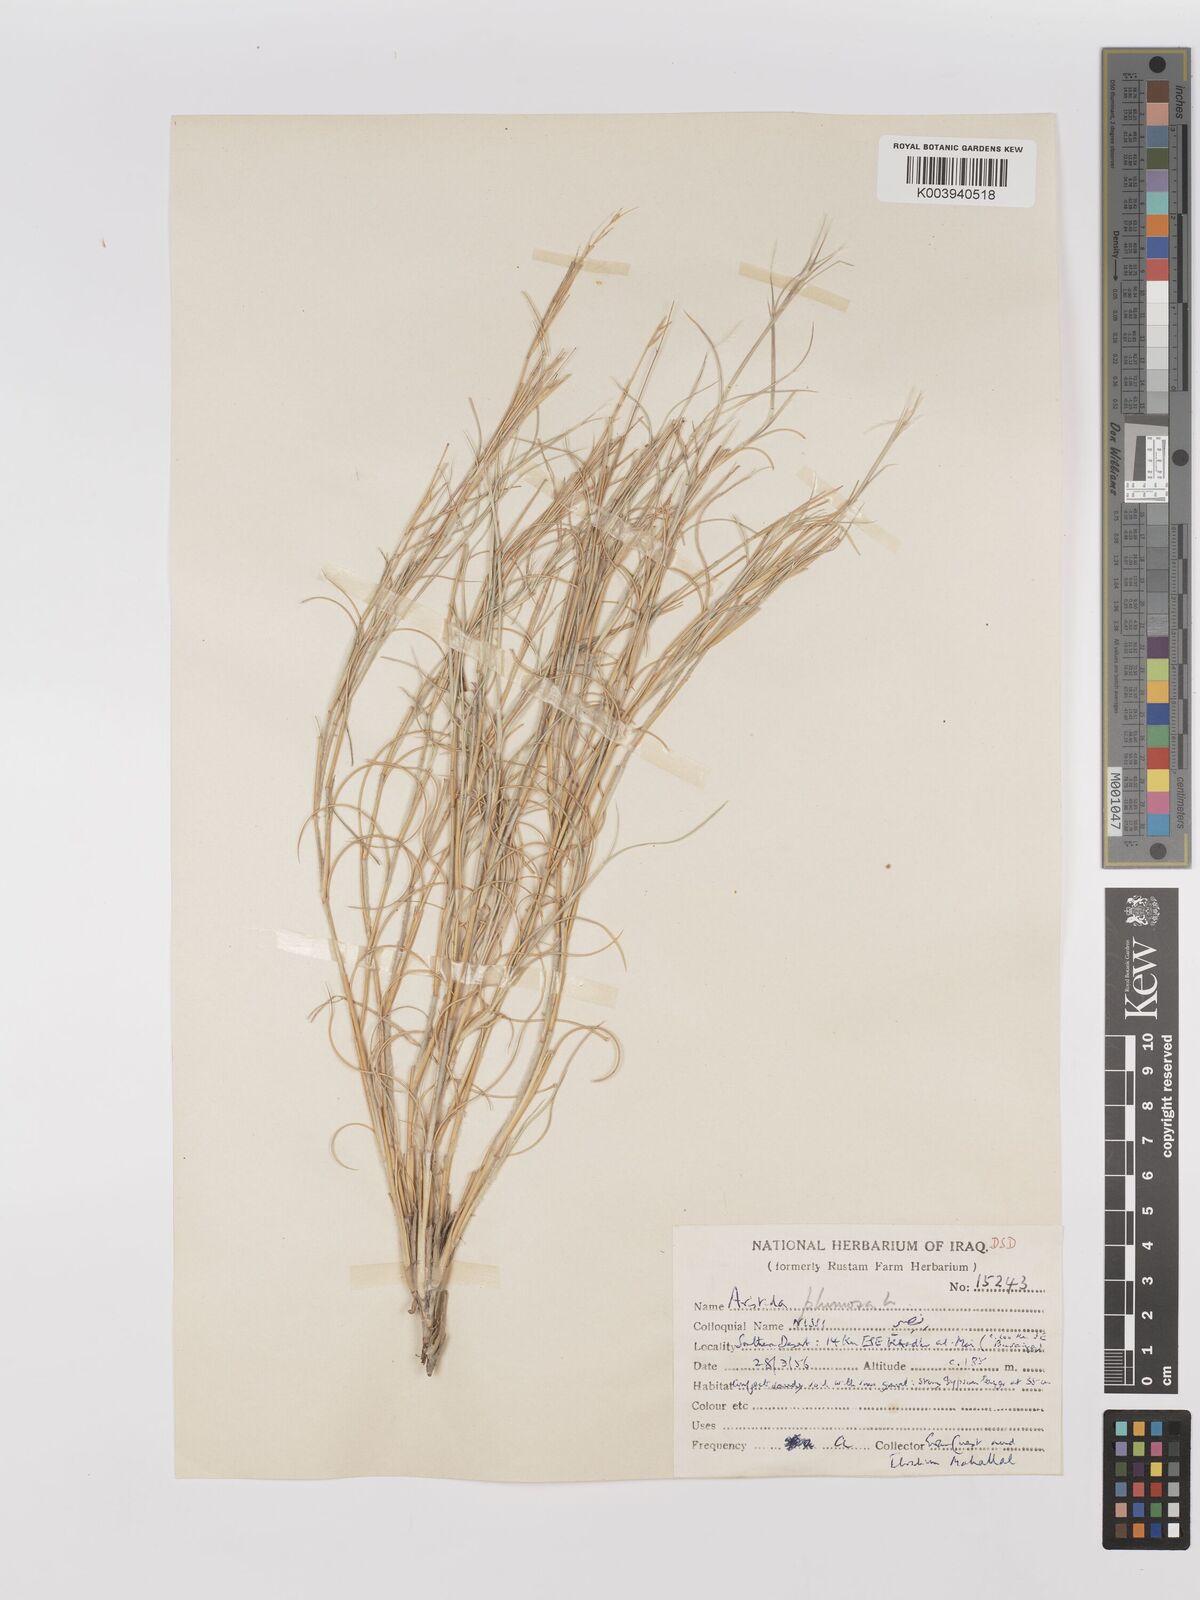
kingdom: Plantae
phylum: Tracheophyta
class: Liliopsida
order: Poales
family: Poaceae
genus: Stipagrostis
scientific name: Stipagrostis plumosa
